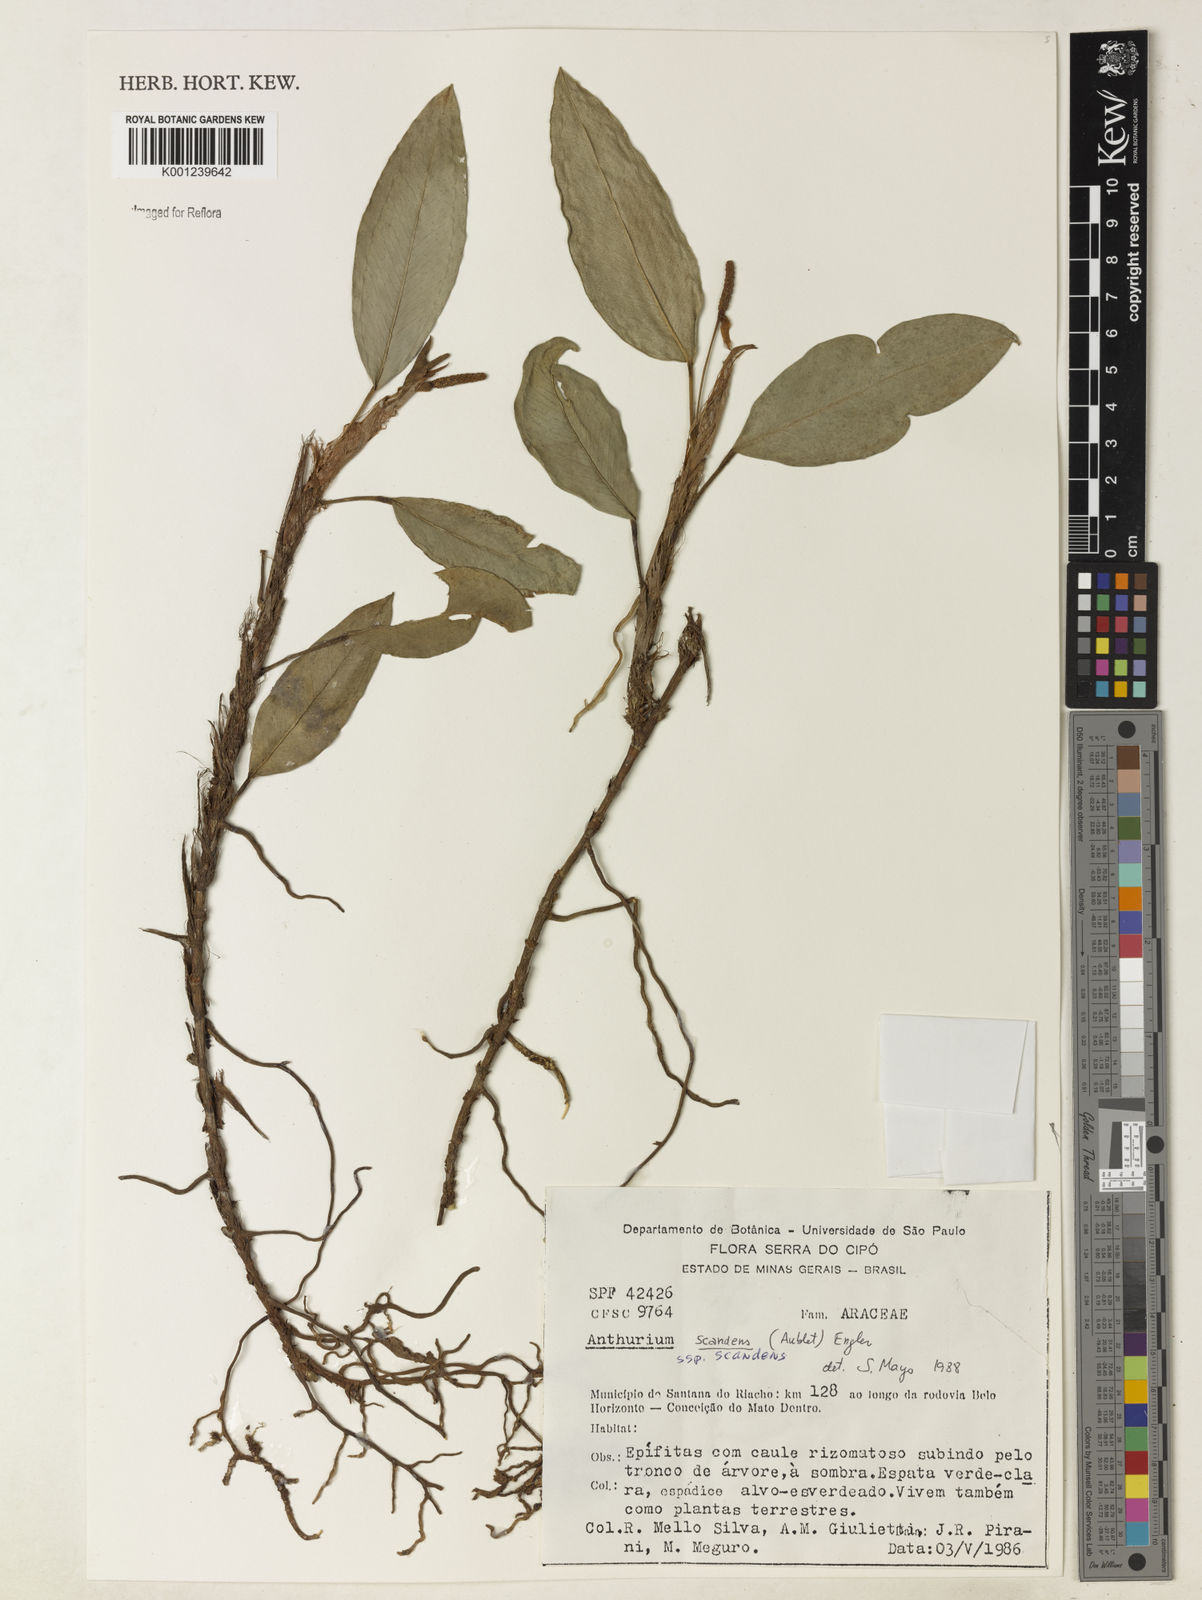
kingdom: Plantae
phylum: Tracheophyta
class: Liliopsida
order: Alismatales
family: Araceae
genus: Anthurium
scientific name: Anthurium scandens
